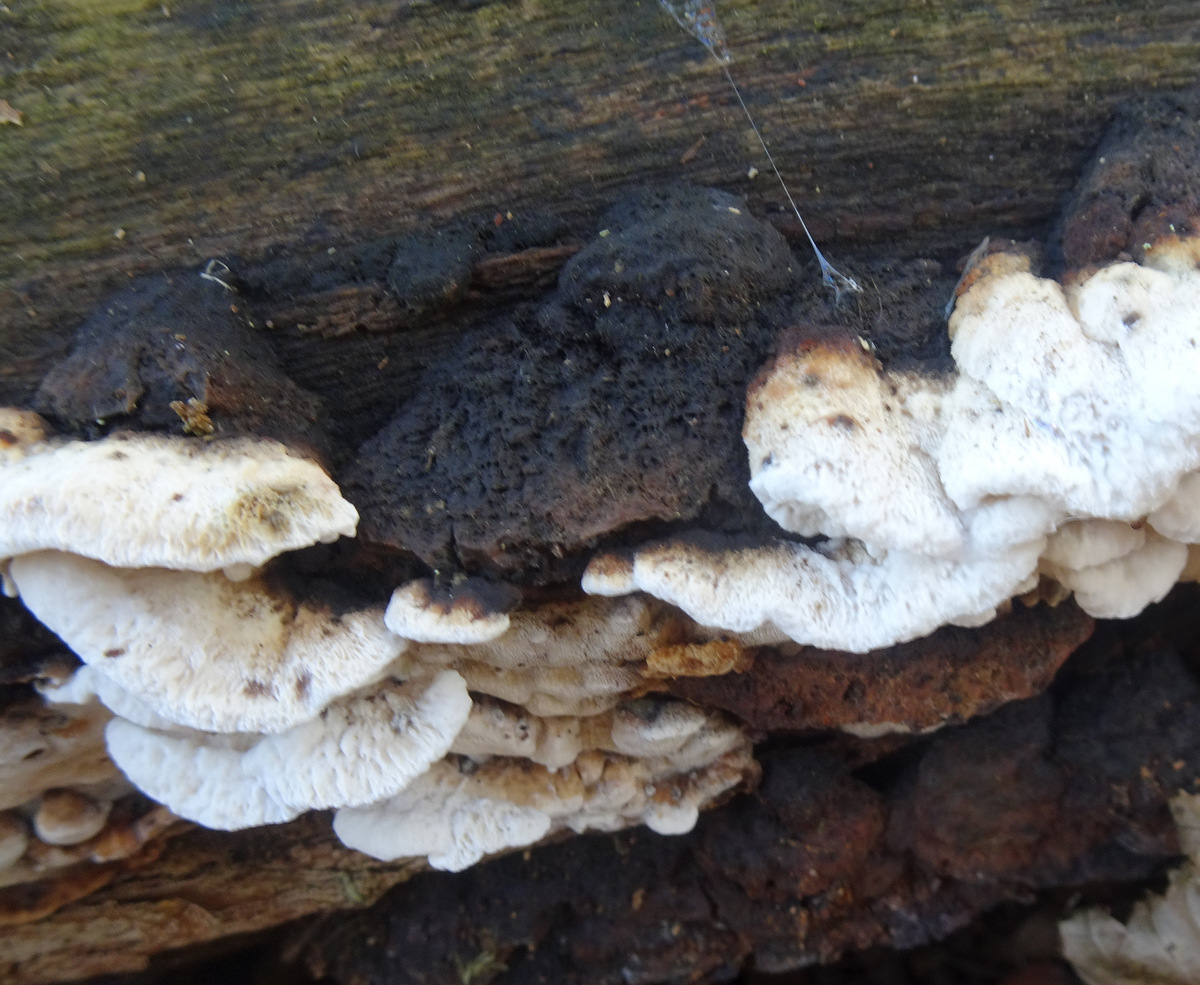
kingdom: Fungi
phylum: Basidiomycota
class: Agaricomycetes
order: Polyporales
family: Incrustoporiaceae
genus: Skeletocutis
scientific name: Skeletocutis nemoralis
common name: stor krystalporesvamp
